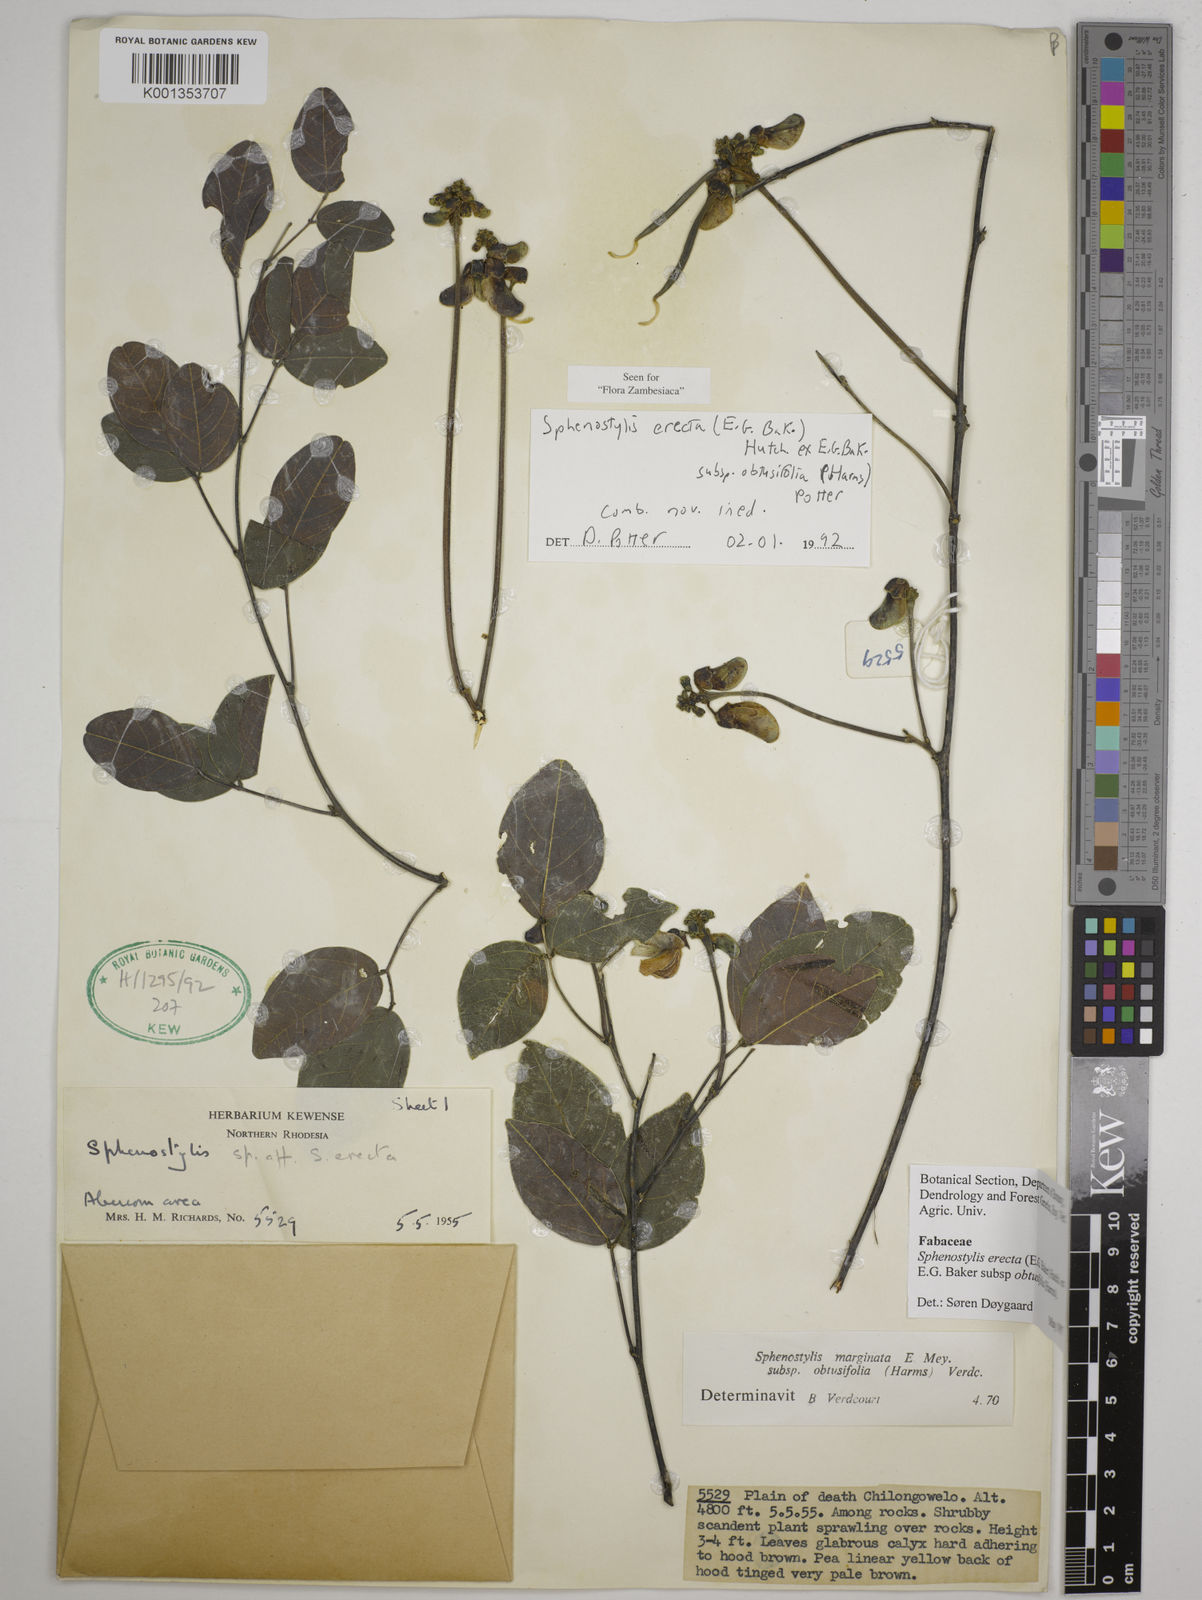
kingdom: Plantae
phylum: Tracheophyta
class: Magnoliopsida
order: Fabales
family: Fabaceae
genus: Sphenostylis
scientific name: Sphenostylis
